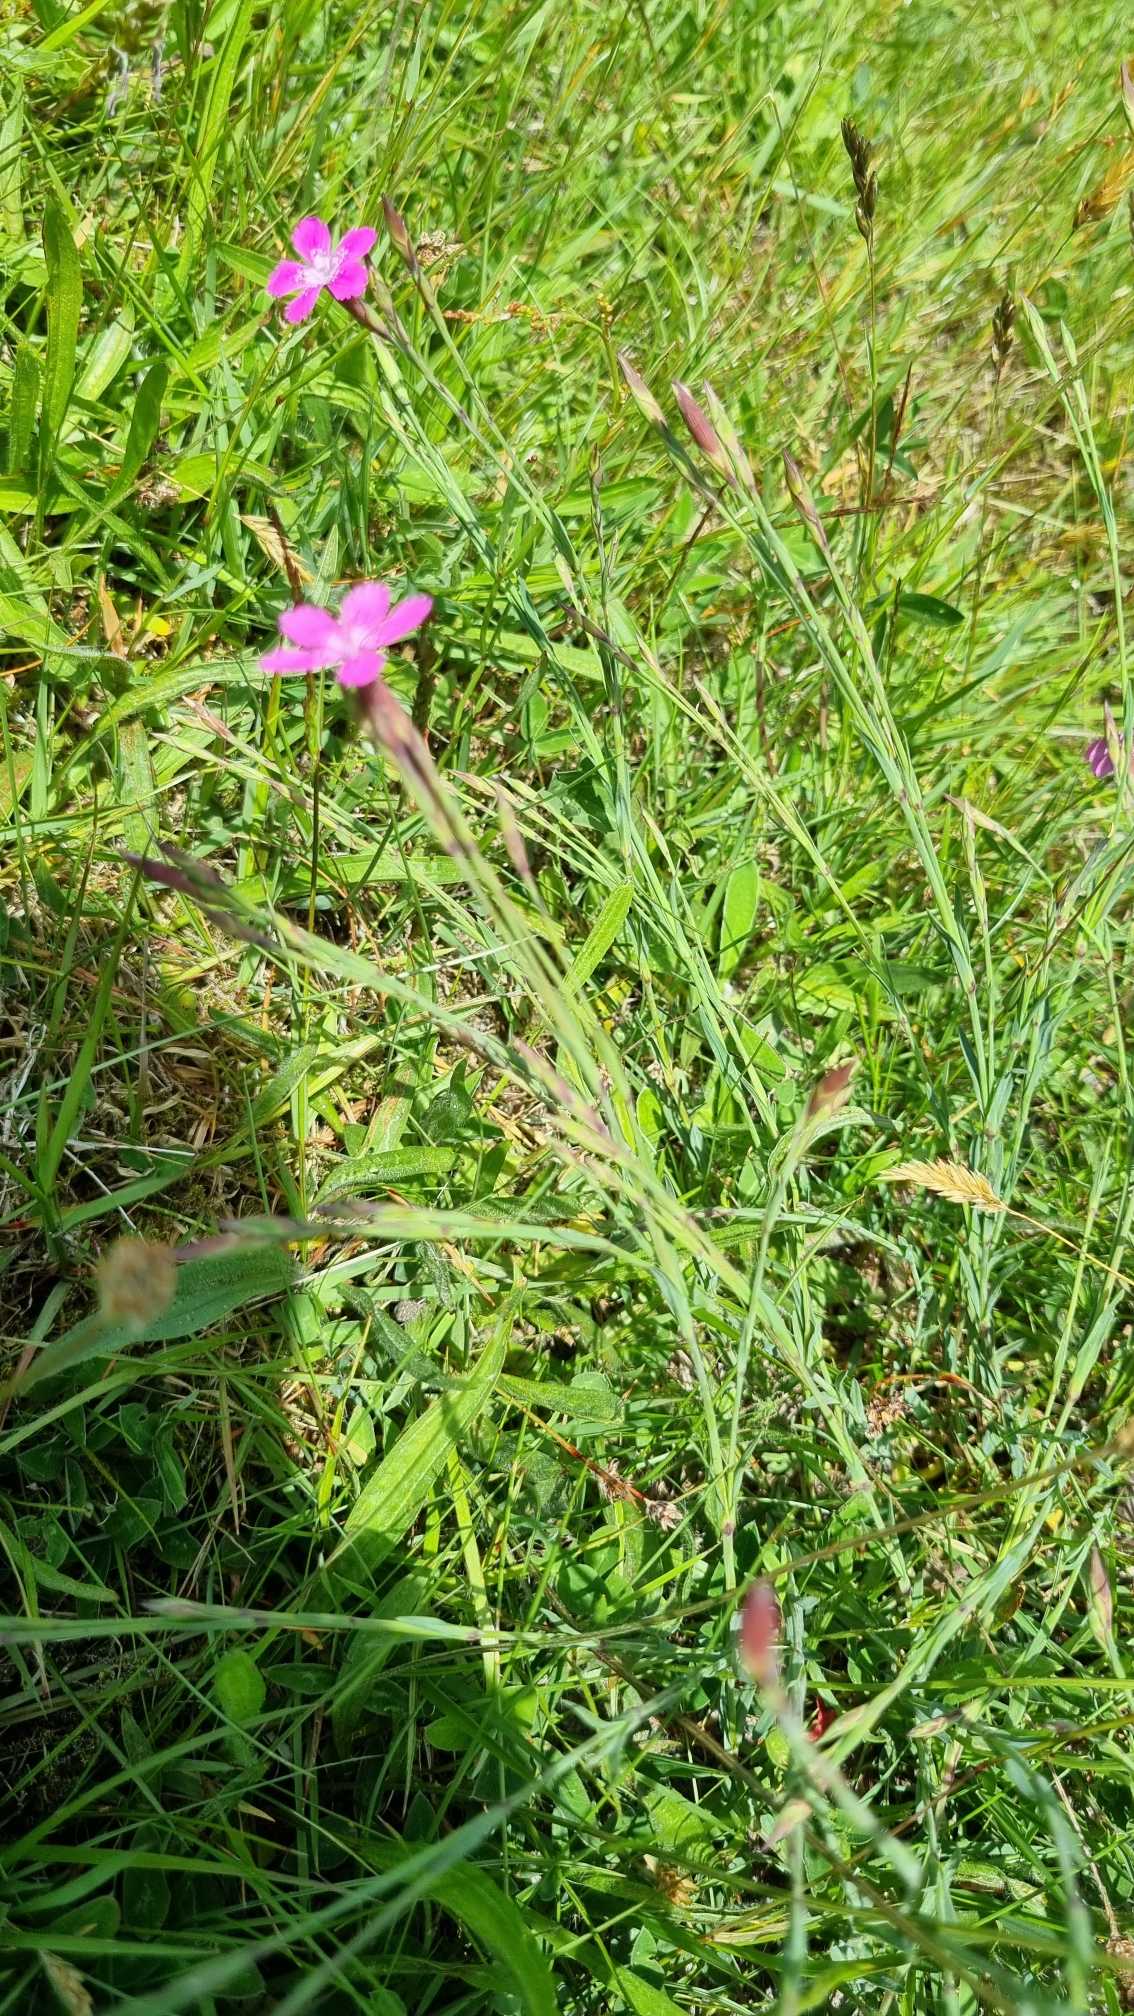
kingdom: Plantae
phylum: Tracheophyta
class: Magnoliopsida
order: Caryophyllales
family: Caryophyllaceae
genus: Dianthus
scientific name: Dianthus deltoides
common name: Bakke-nellike
